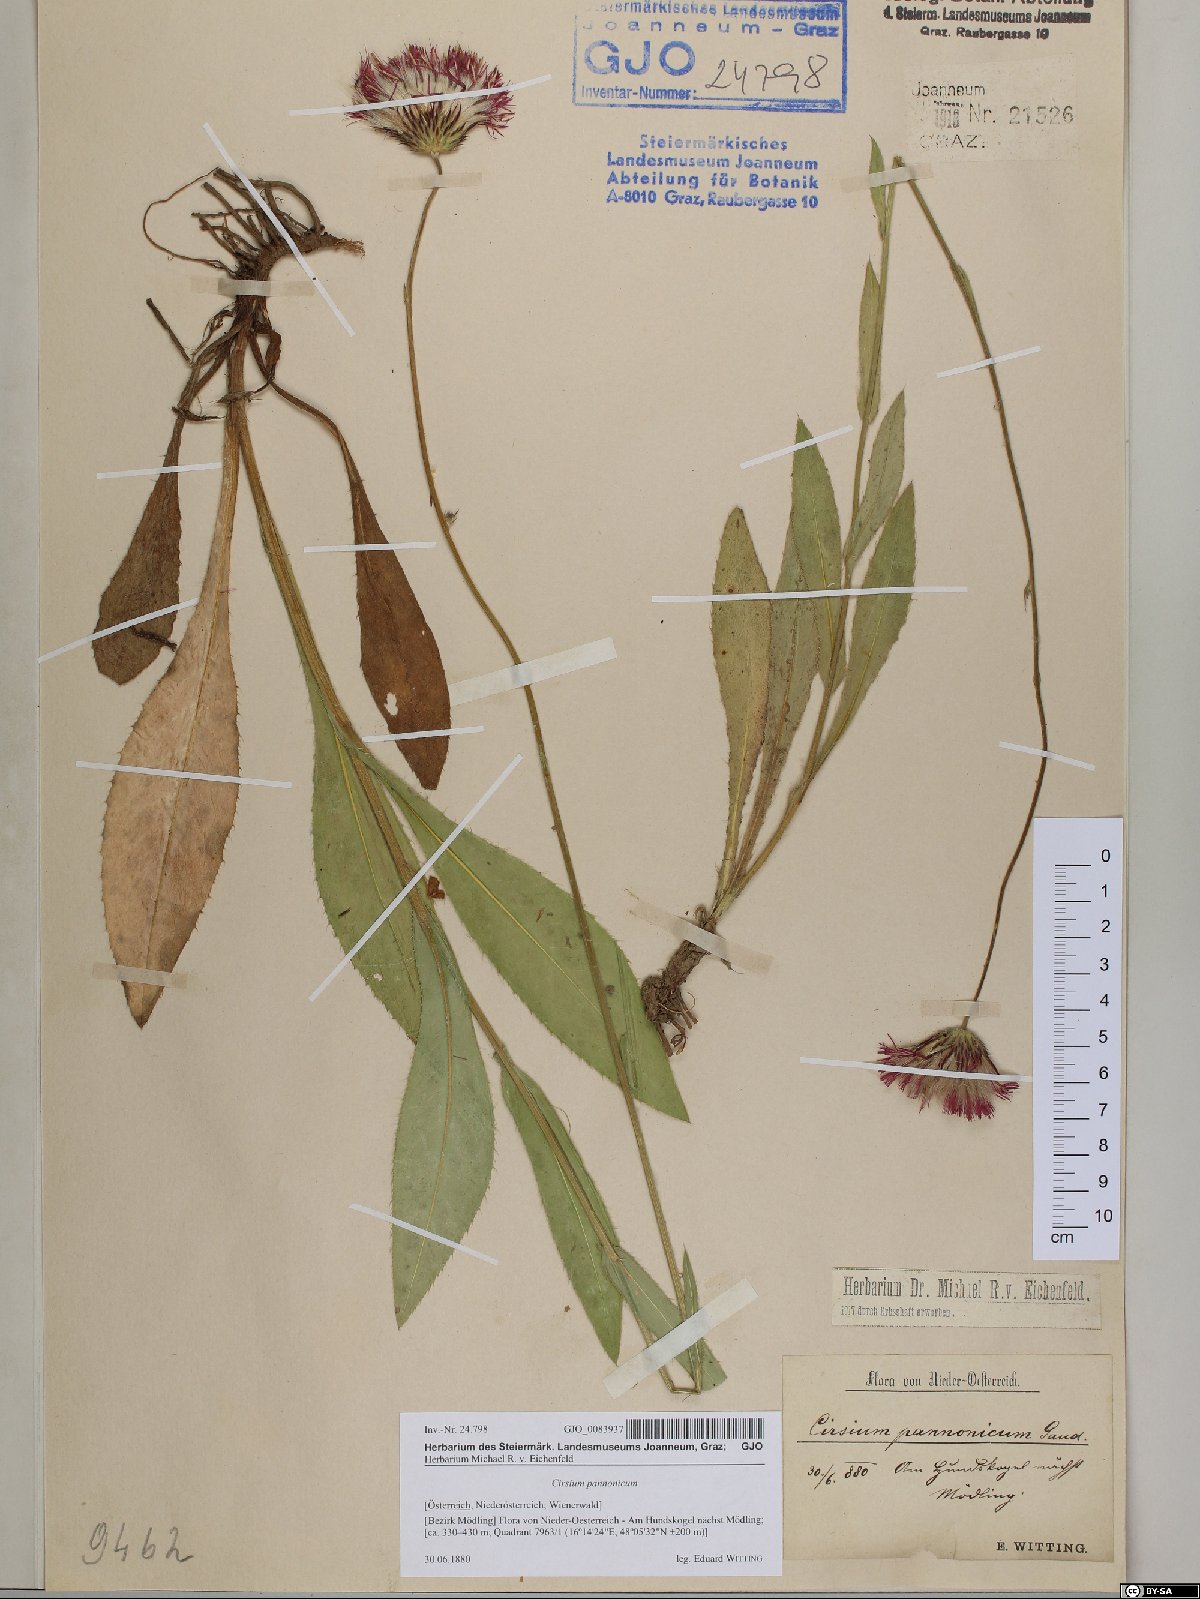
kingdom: Plantae
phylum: Tracheophyta
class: Magnoliopsida
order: Asterales
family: Asteraceae
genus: Cirsium
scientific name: Cirsium pannonicum
